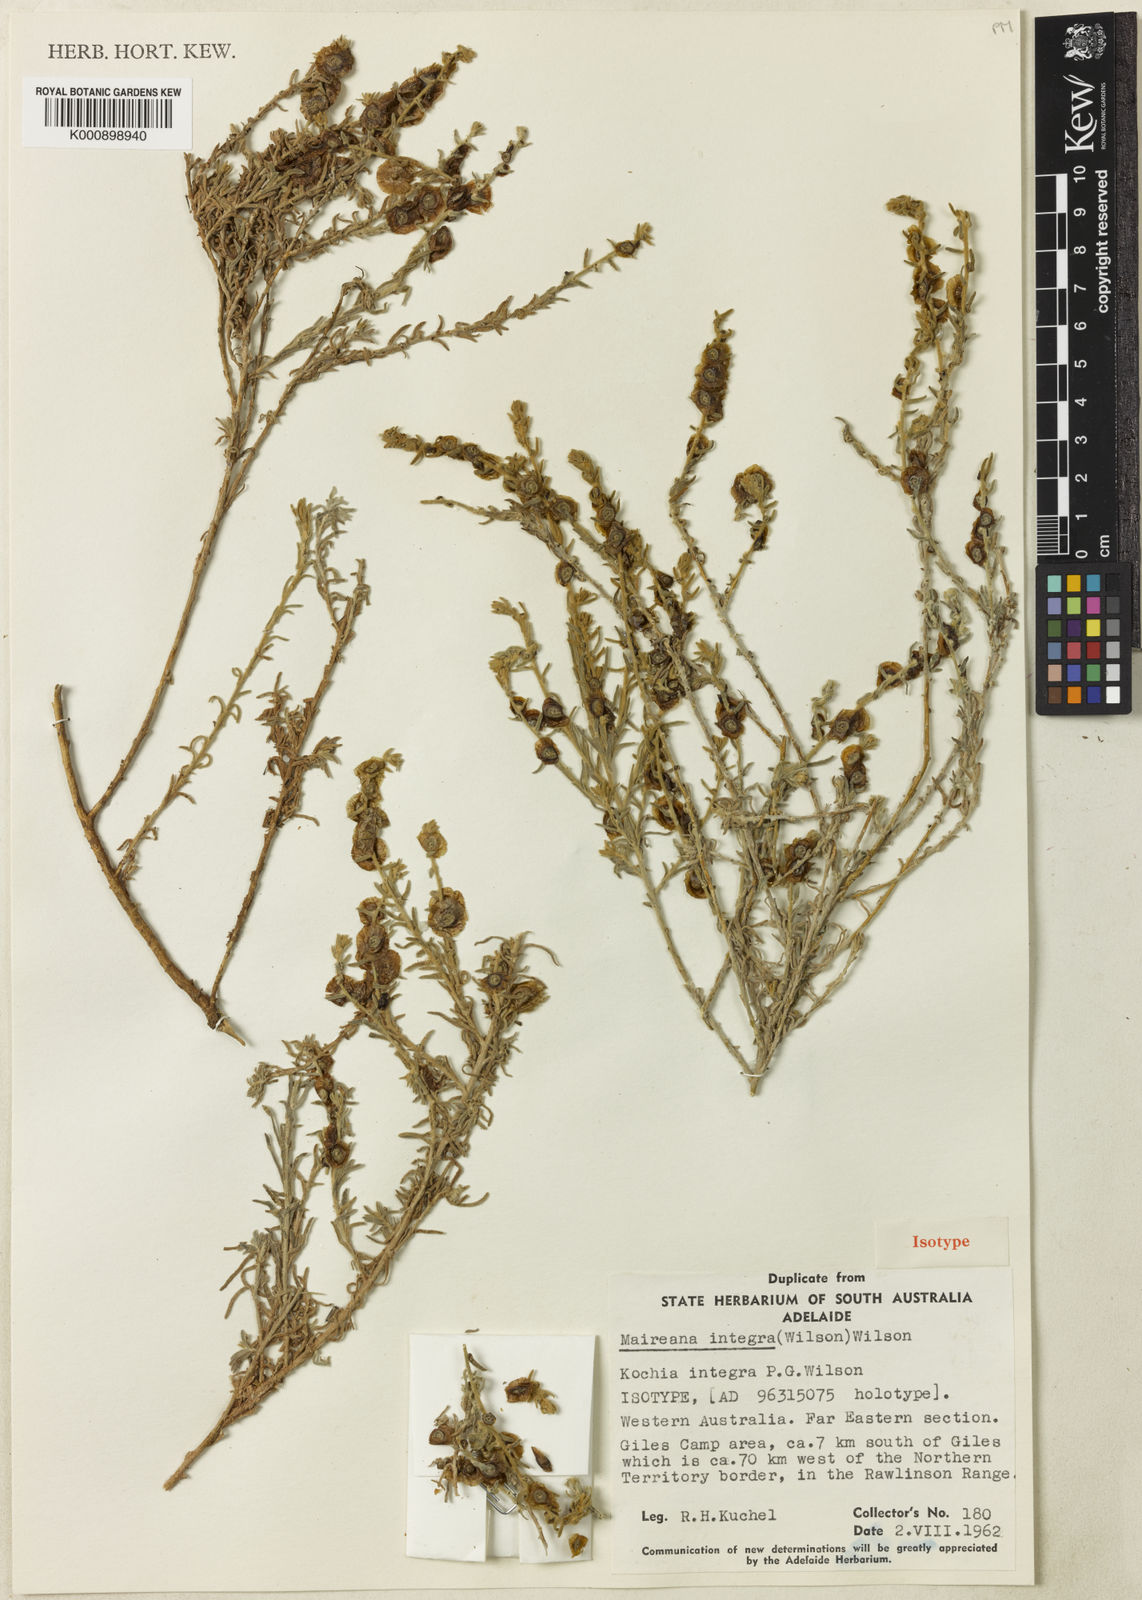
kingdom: Plantae
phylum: Tracheophyta
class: Magnoliopsida
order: Caryophyllales
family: Amaranthaceae
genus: Maireana
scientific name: Maireana integra
